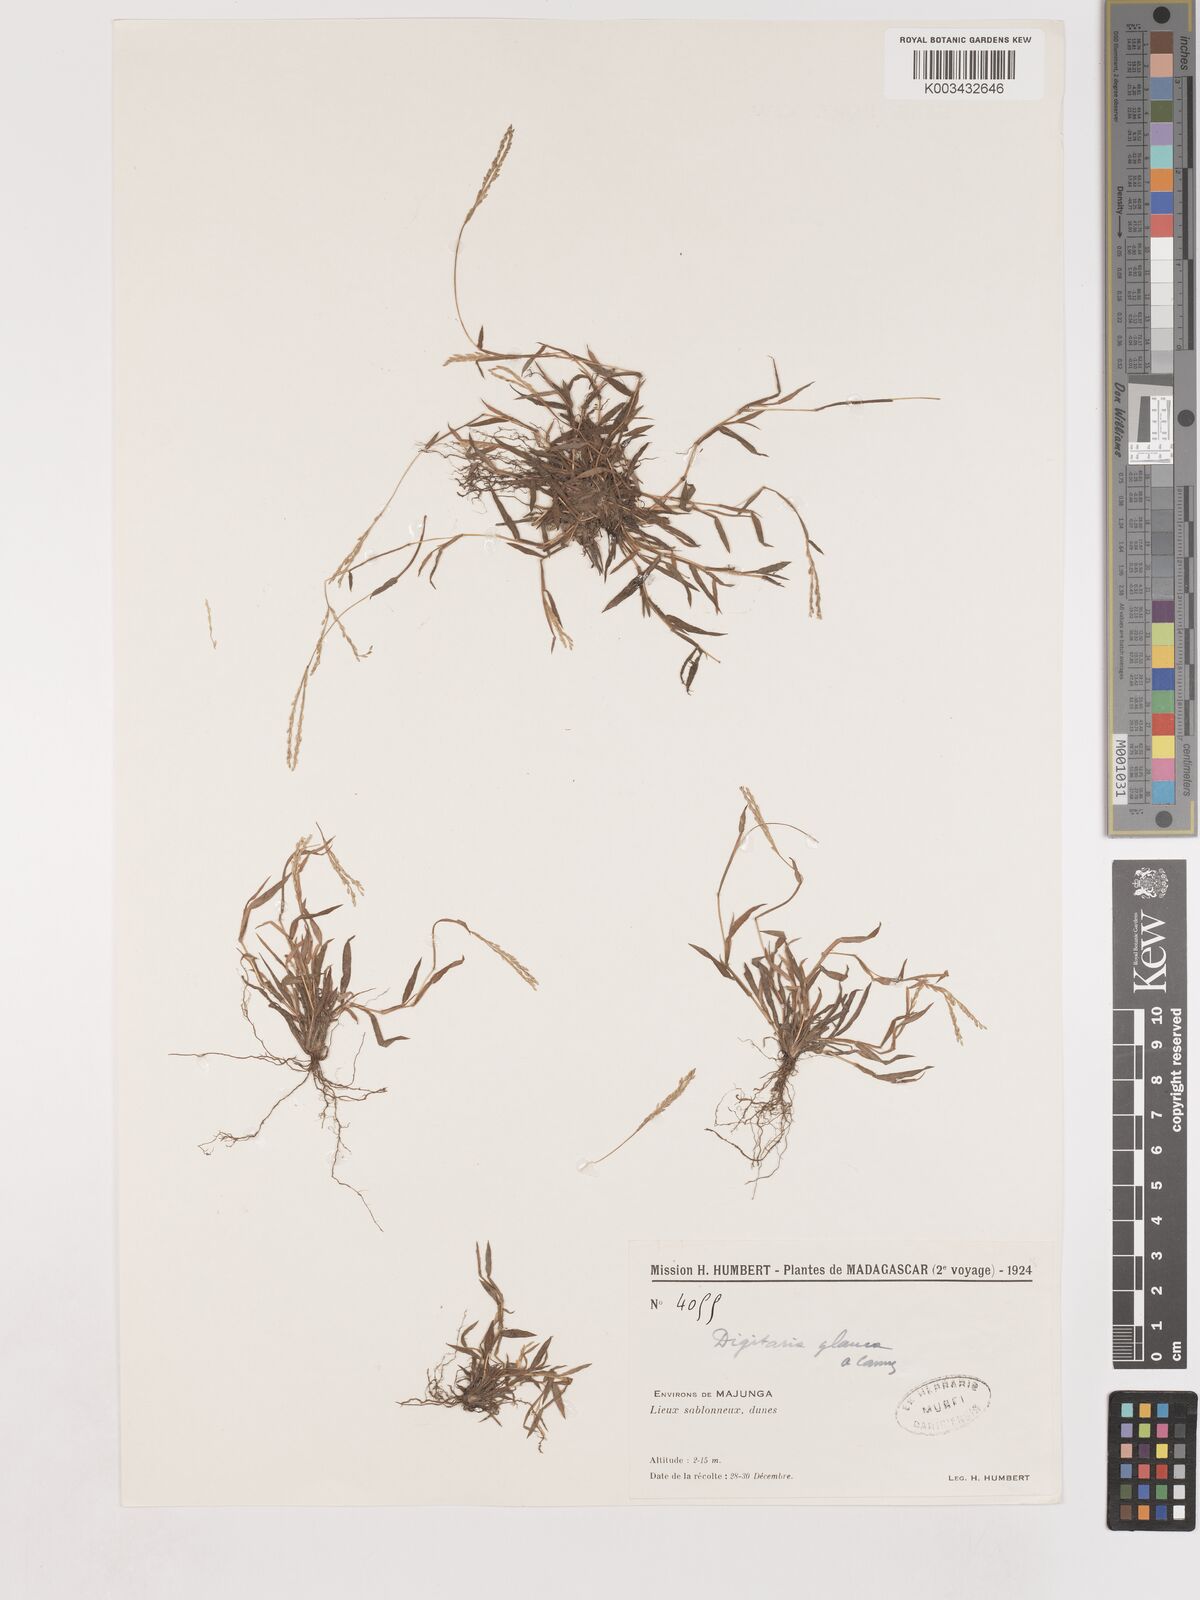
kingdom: Plantae
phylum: Tracheophyta
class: Liliopsida
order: Poales
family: Poaceae
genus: Digitaria
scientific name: Digitaria glauca
